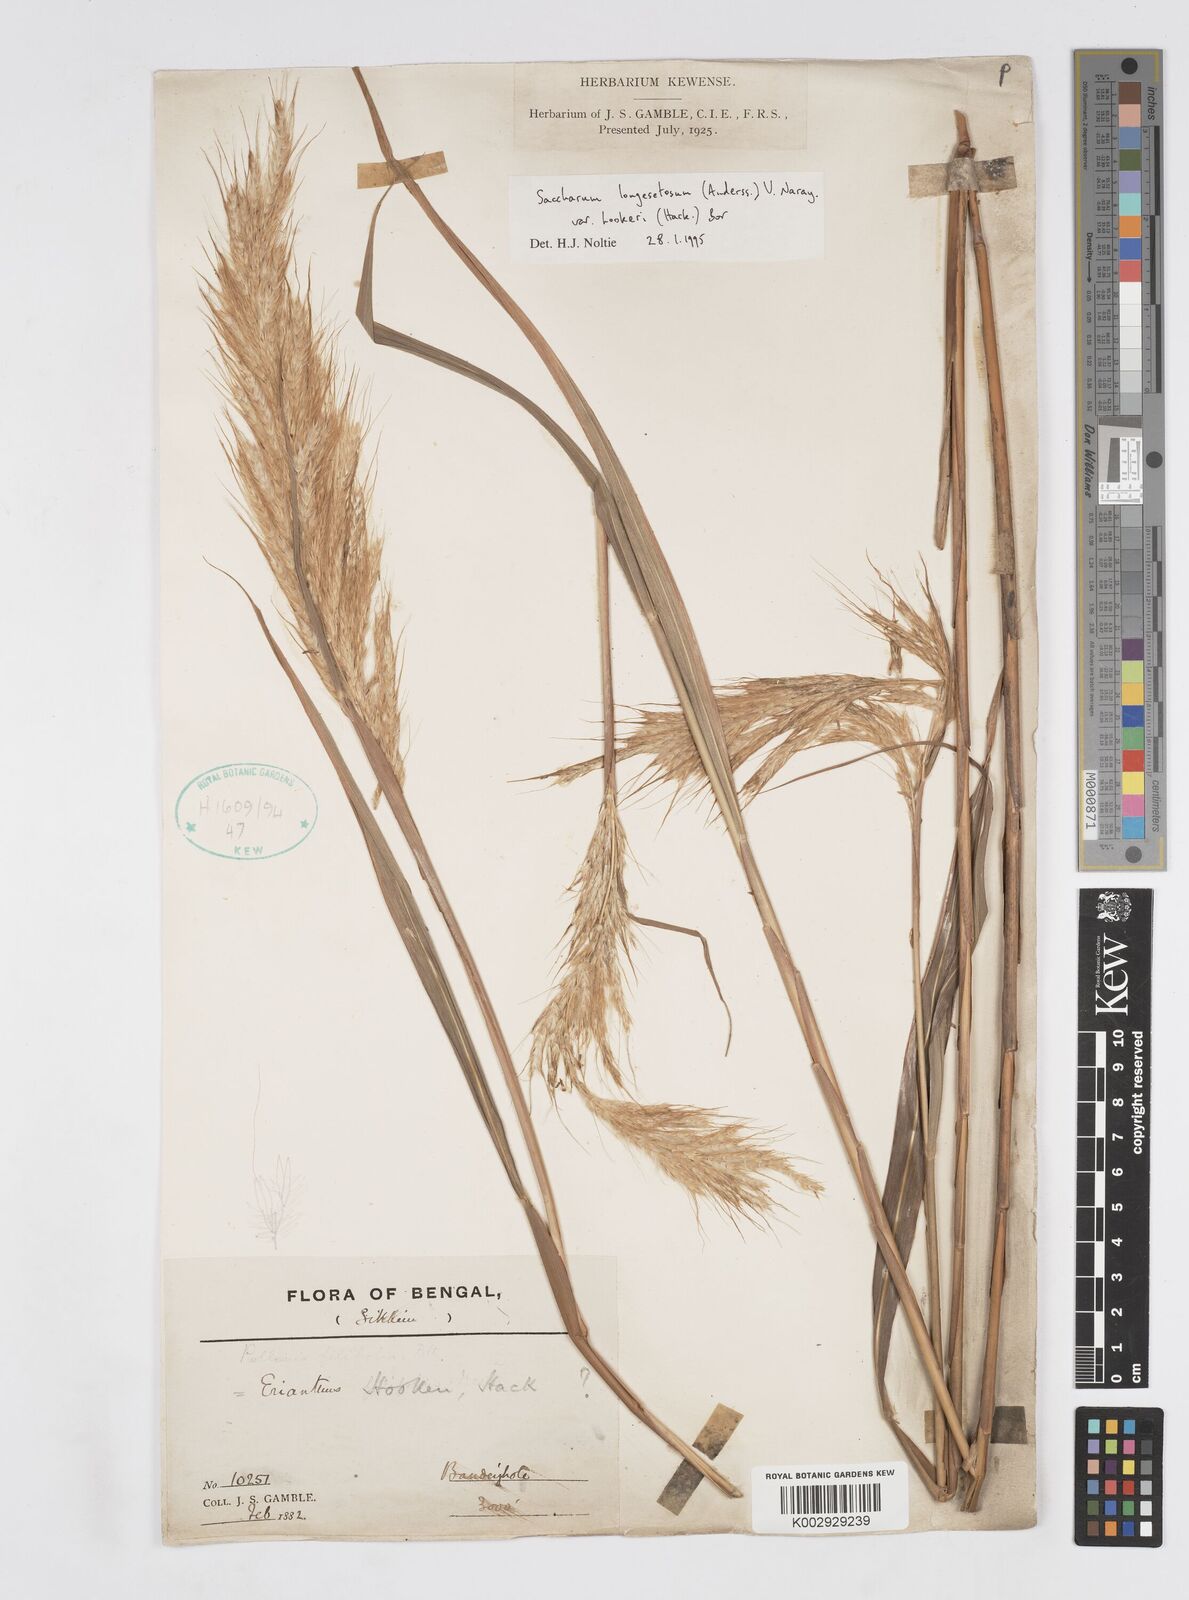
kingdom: Plantae
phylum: Tracheophyta
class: Liliopsida
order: Poales
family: Poaceae
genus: Saccharum
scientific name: Saccharum longesetosum
